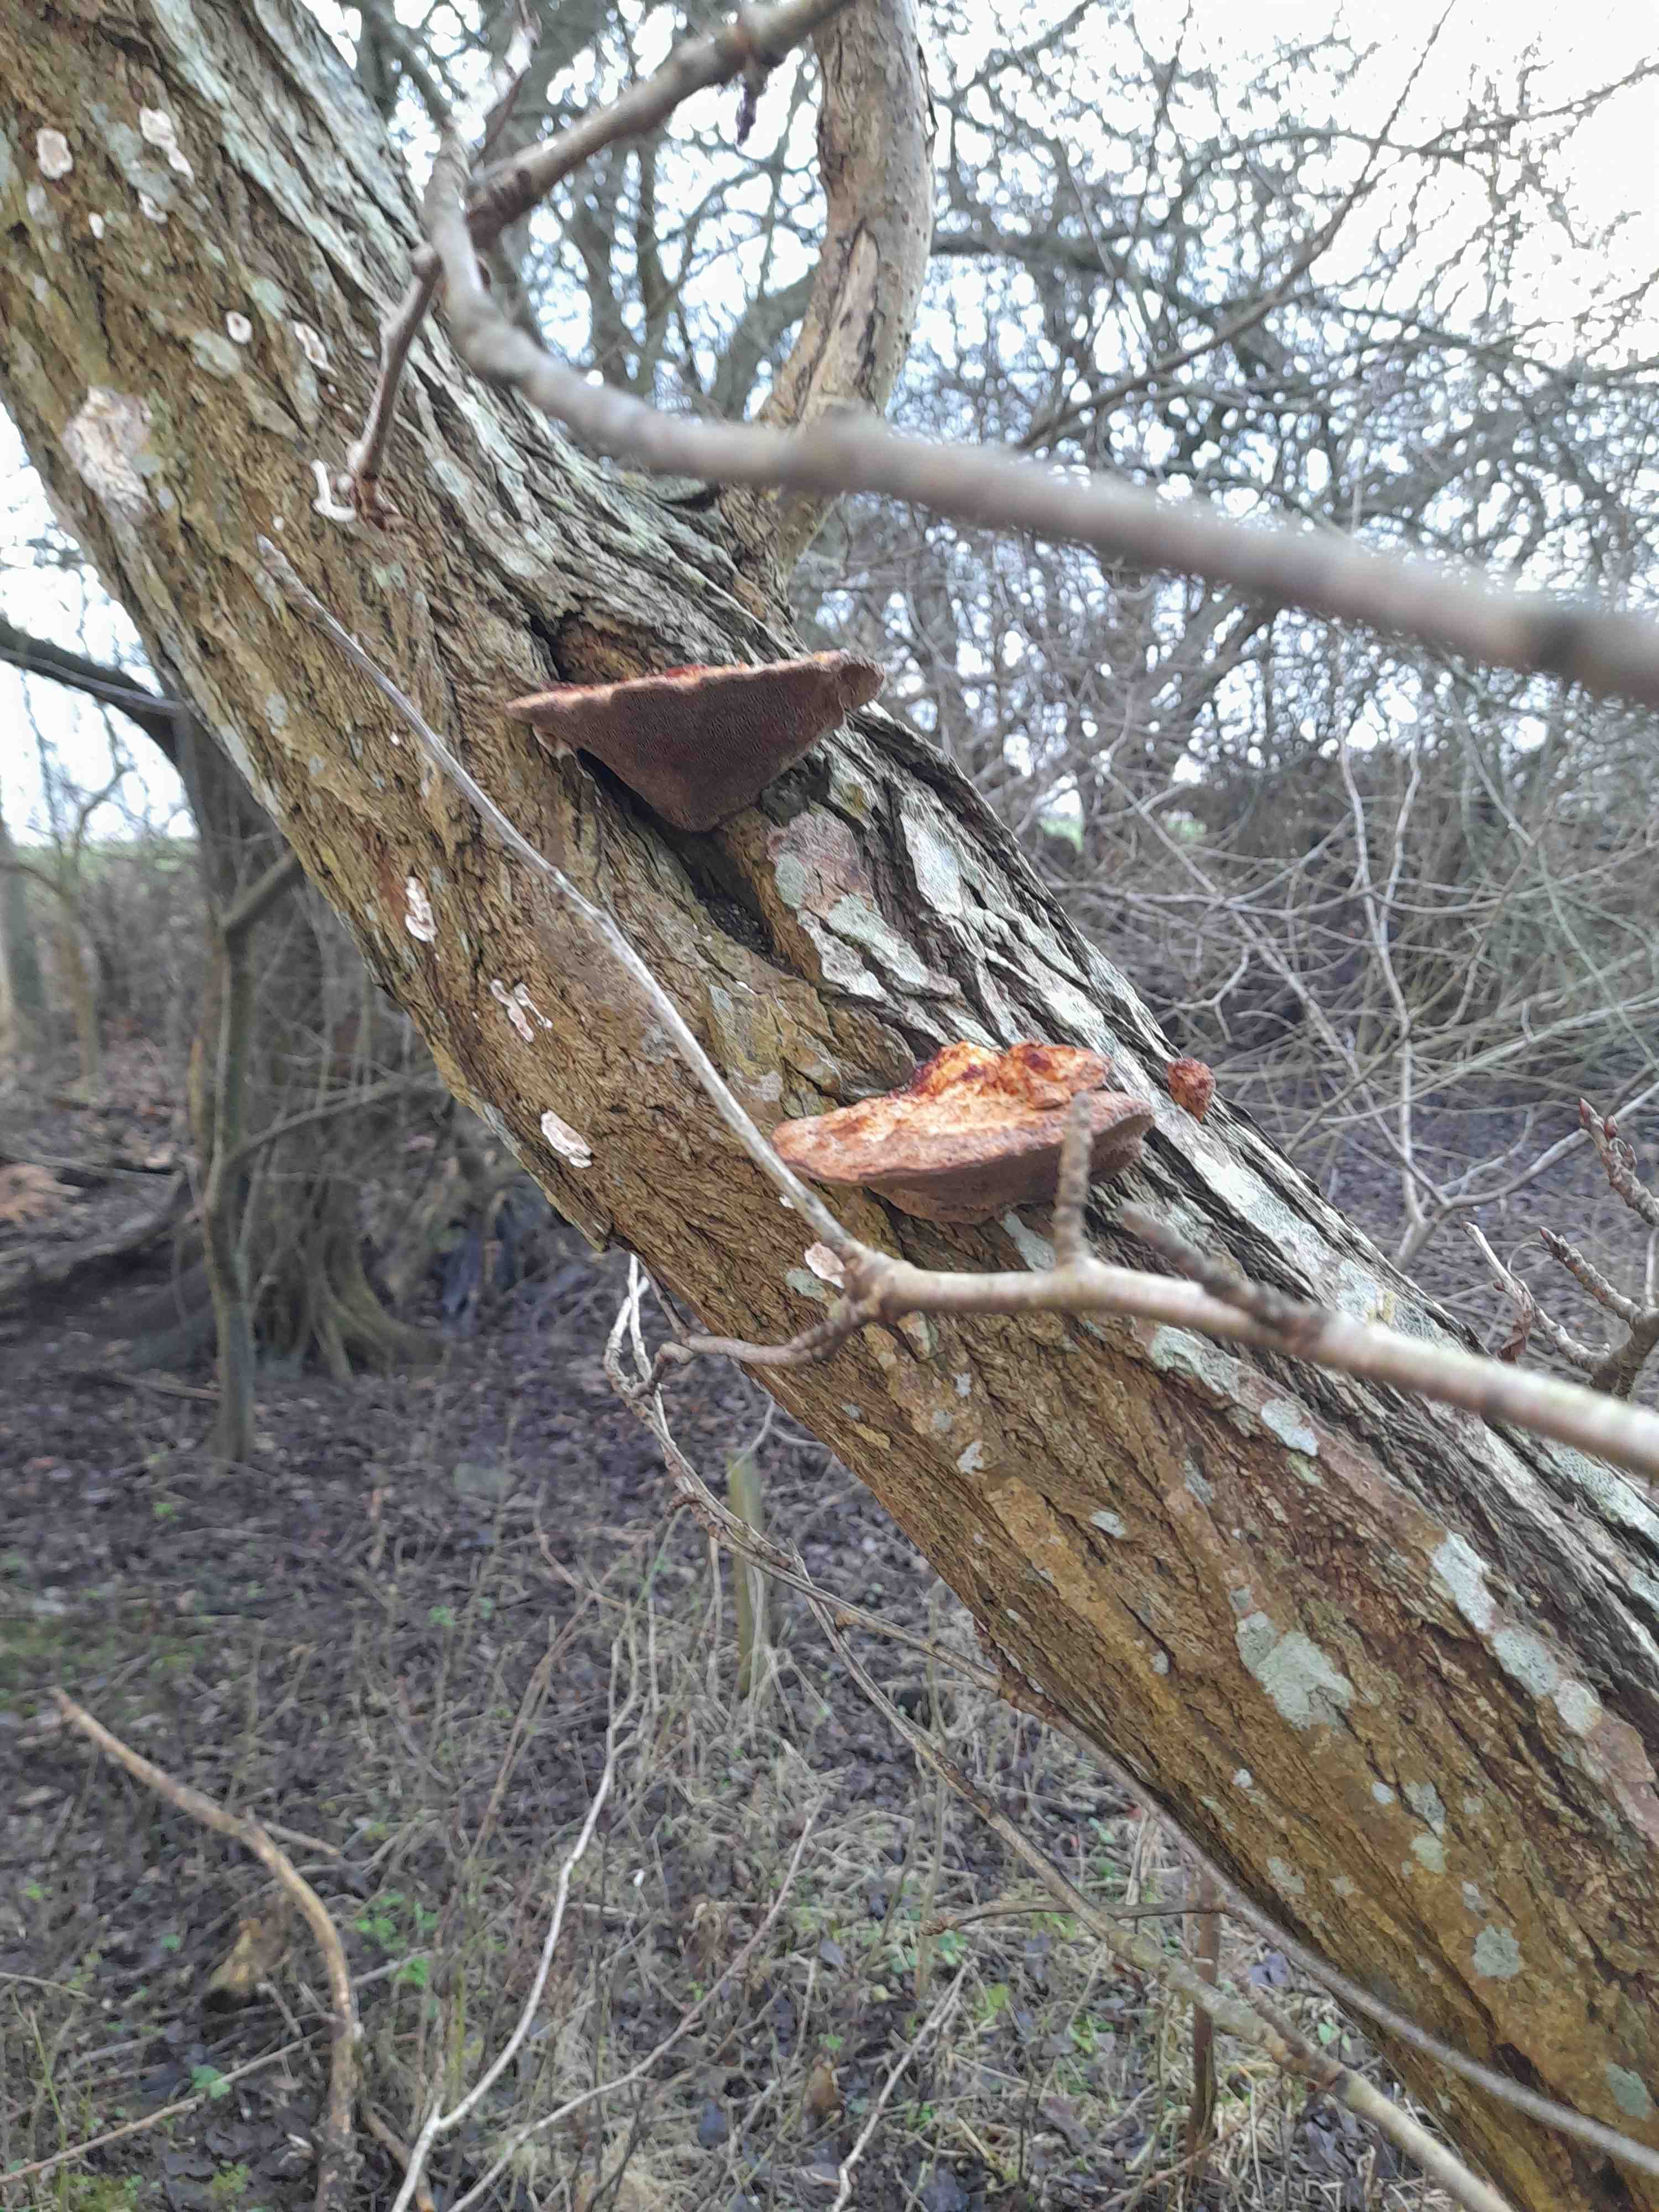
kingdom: Fungi
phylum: Basidiomycota
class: Agaricomycetes
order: Polyporales
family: Polyporaceae
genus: Daedaleopsis
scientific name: Daedaleopsis confragosa
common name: rødmende læderporesvamp
